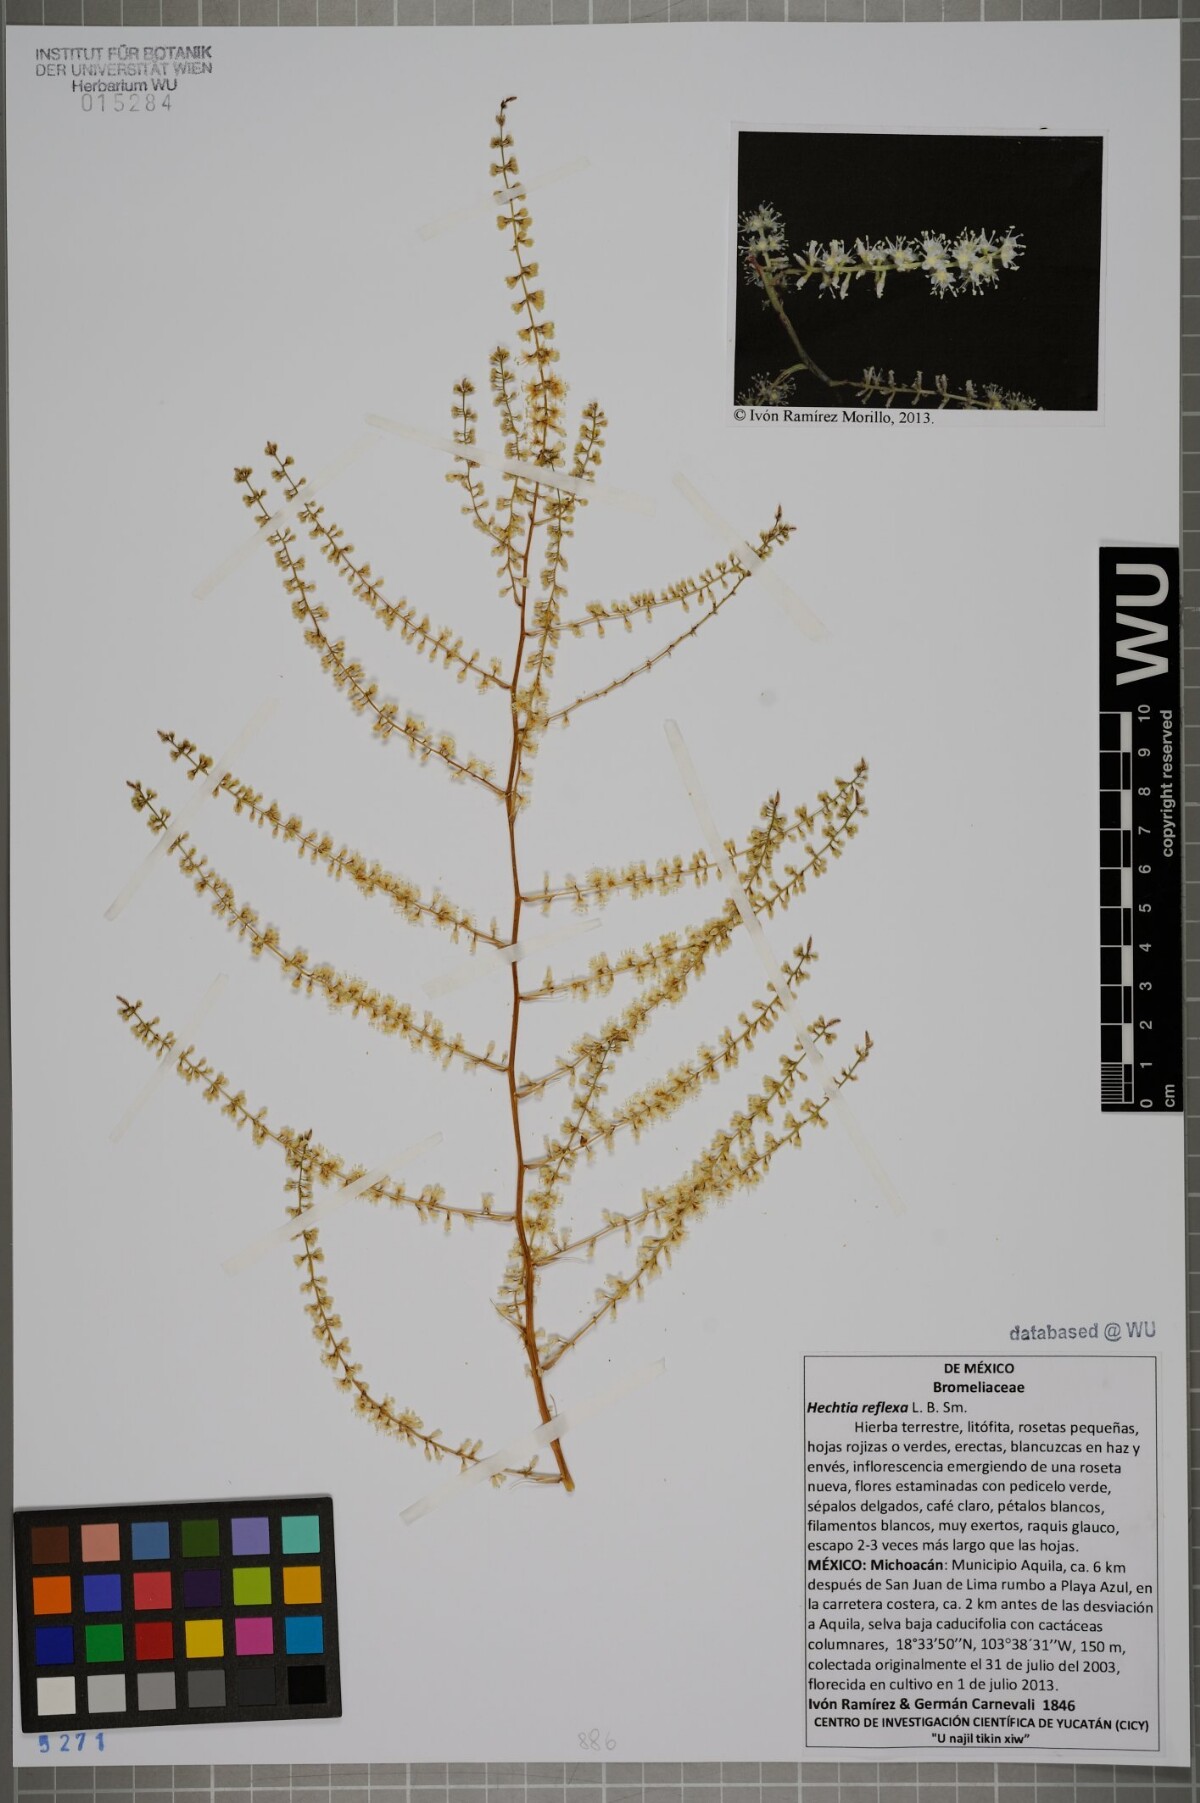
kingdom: Plantae
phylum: Tracheophyta
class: Liliopsida
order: Poales
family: Bromeliaceae
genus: Hechtia
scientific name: Hechtia reflexa
